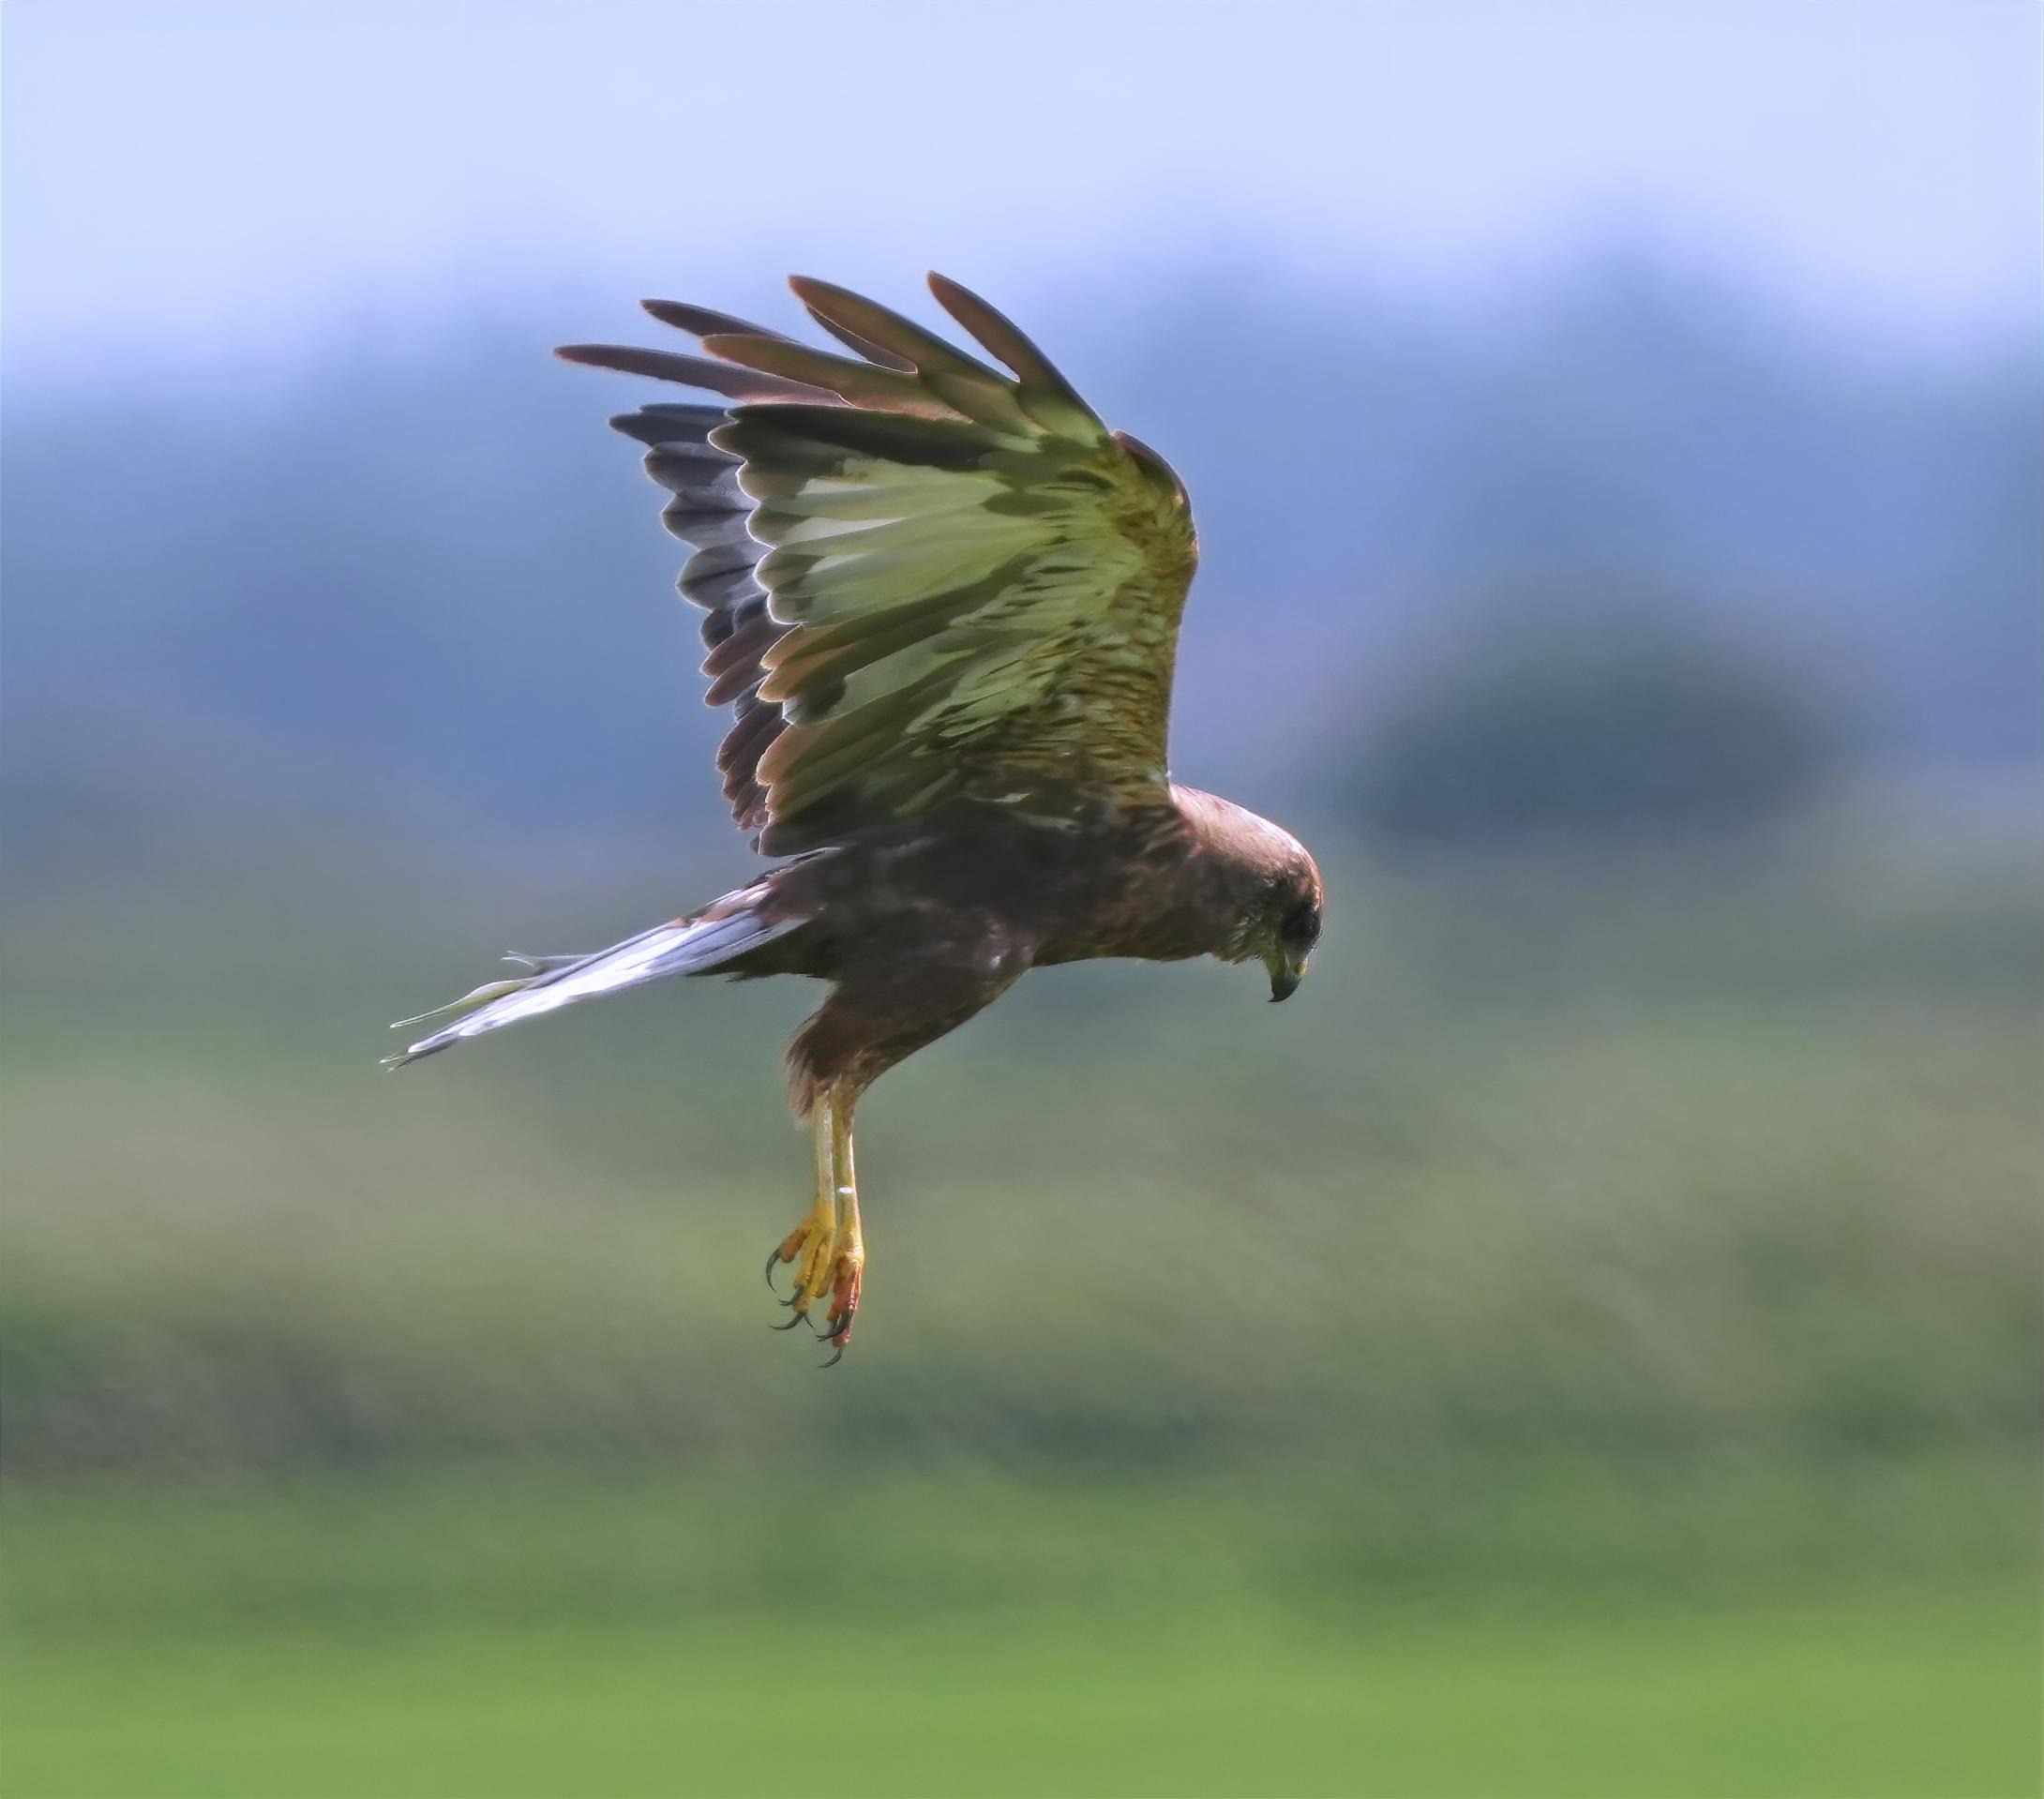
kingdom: Animalia
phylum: Chordata
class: Aves
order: Accipitriformes
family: Accipitridae
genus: Circus
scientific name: Circus aeruginosus
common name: Rørhøg
